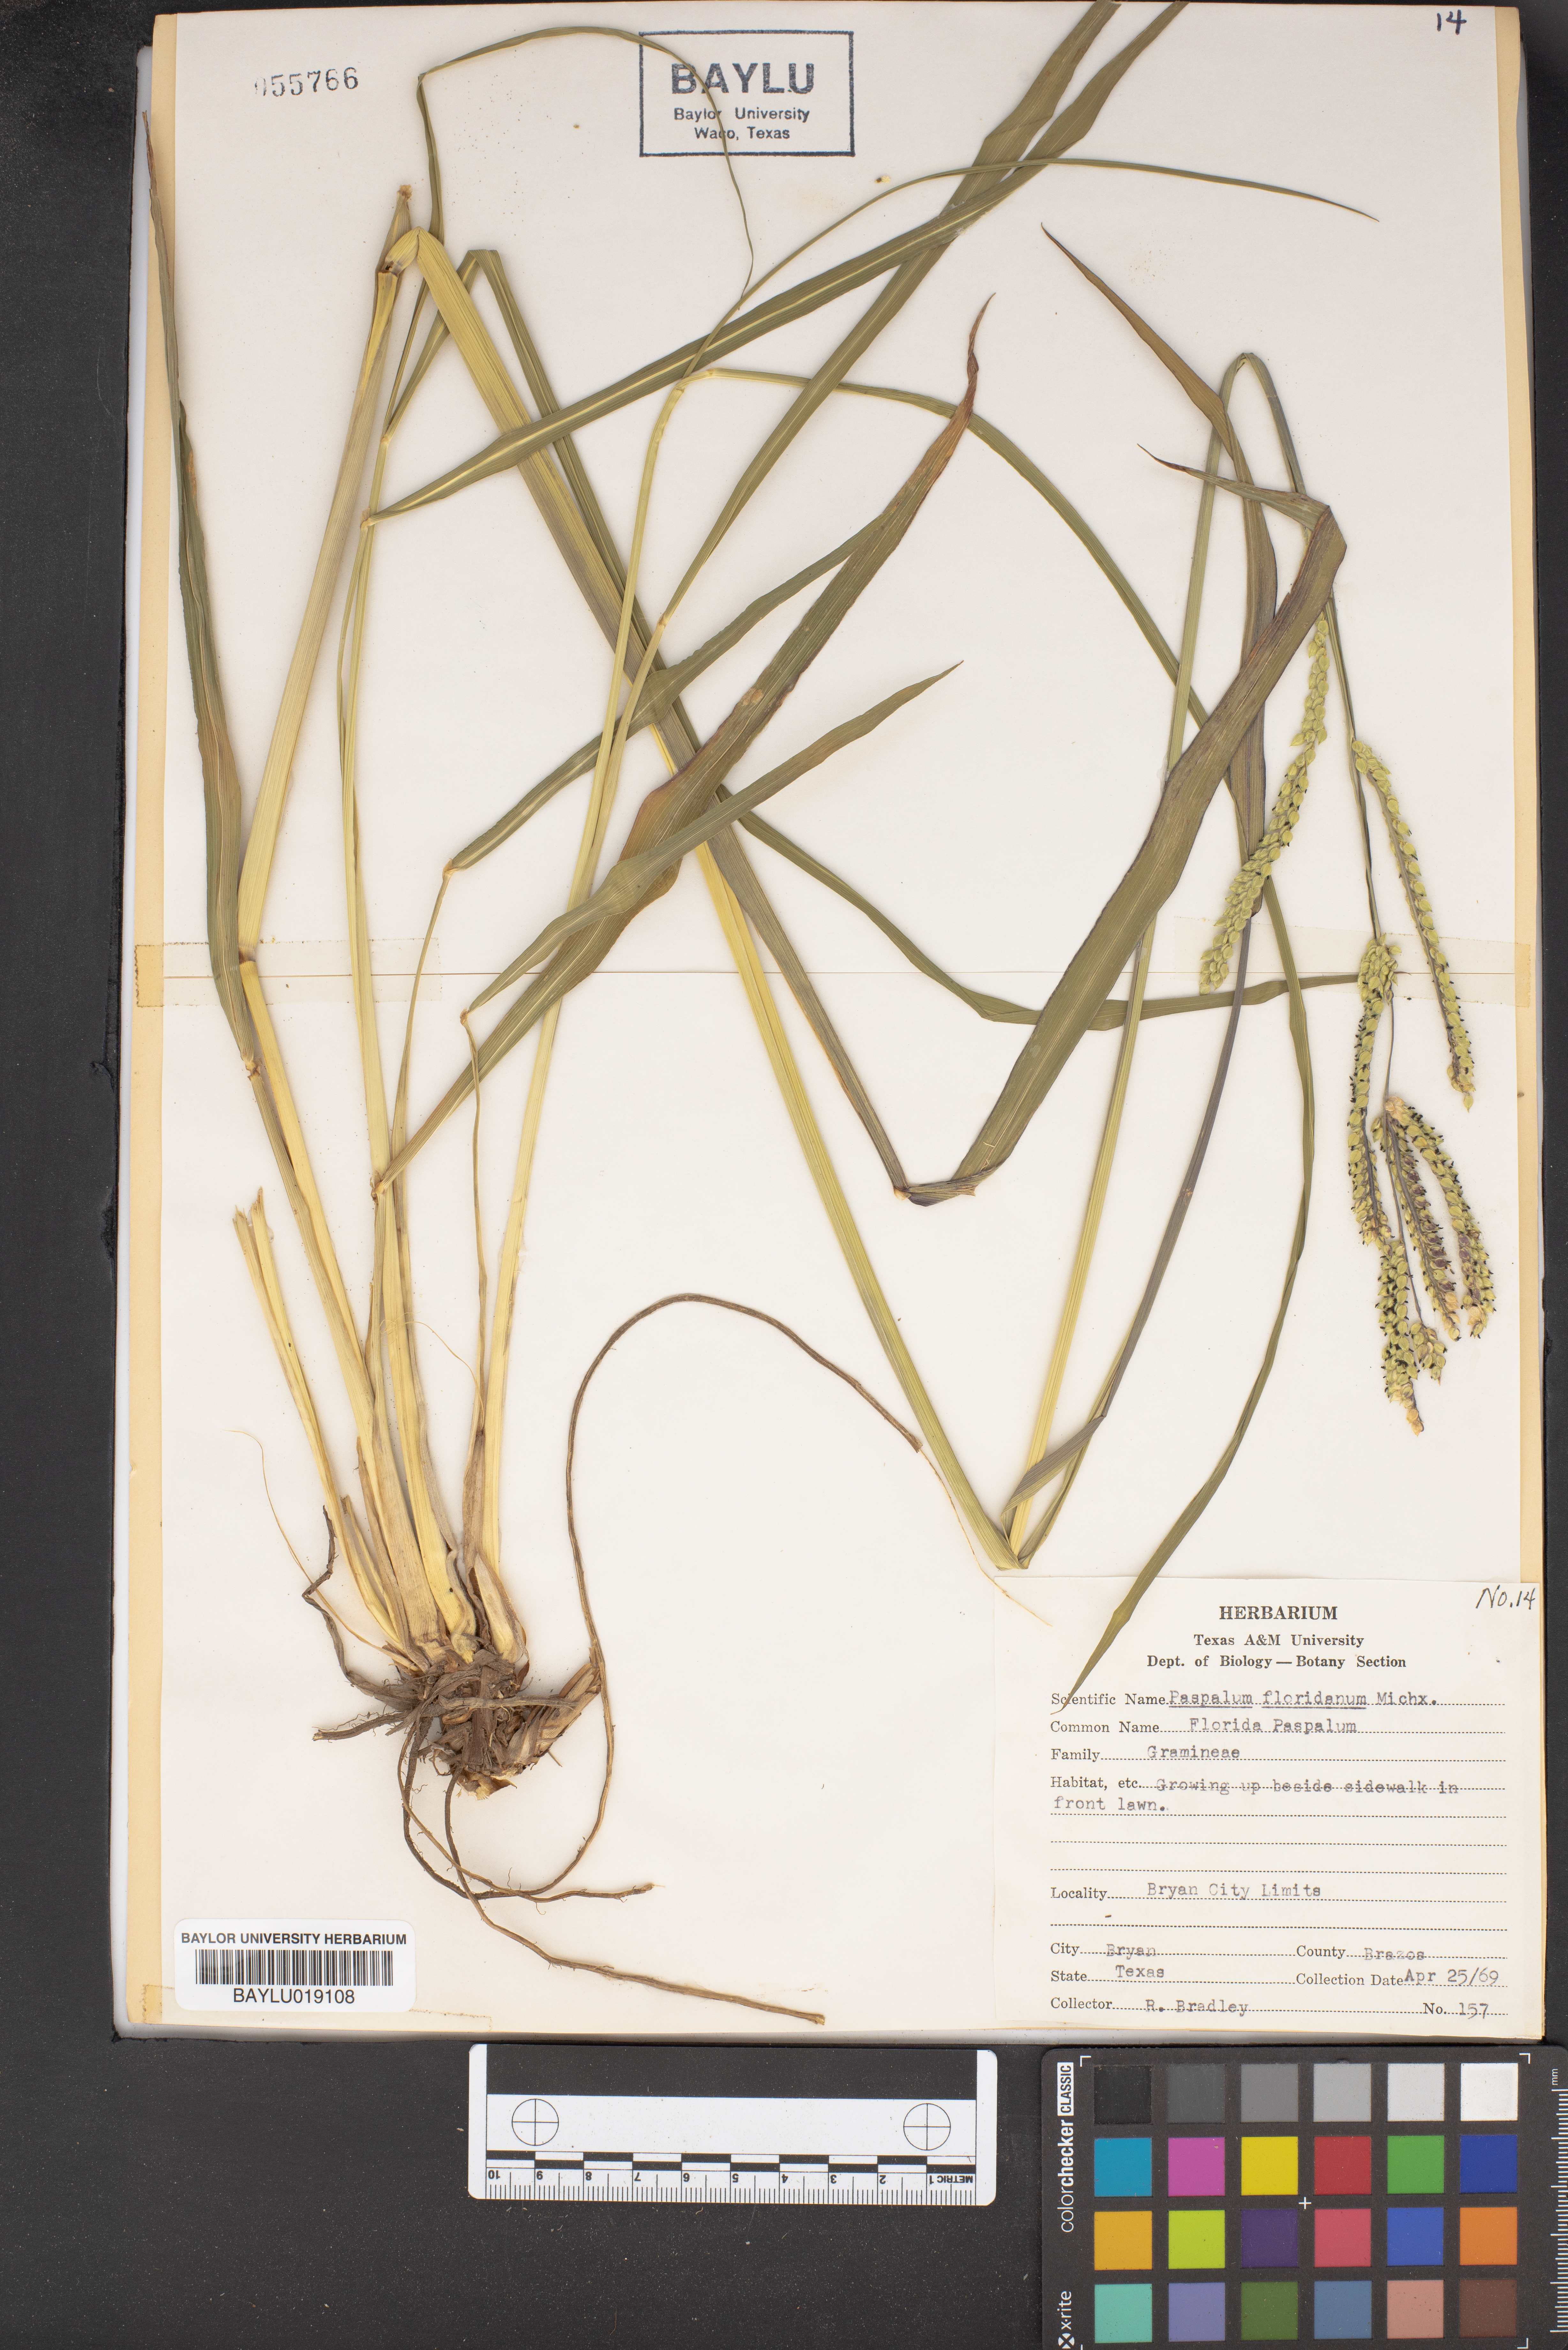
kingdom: Plantae
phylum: Tracheophyta
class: Liliopsida
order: Poales
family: Poaceae
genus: Paspalum
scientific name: Paspalum floridanum
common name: Florida paspalum
